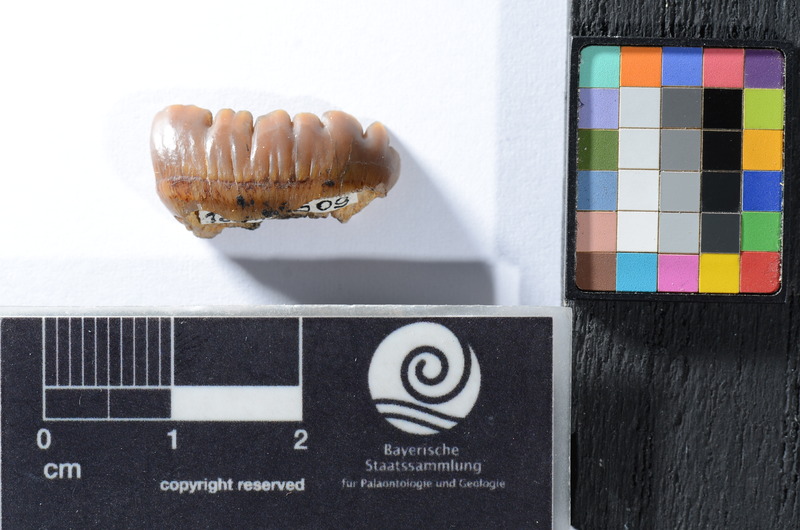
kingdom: Animalia
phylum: Chordata
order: Tetraodontiformes
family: Trigonodontidae
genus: Stephanodus
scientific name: Stephanodus
